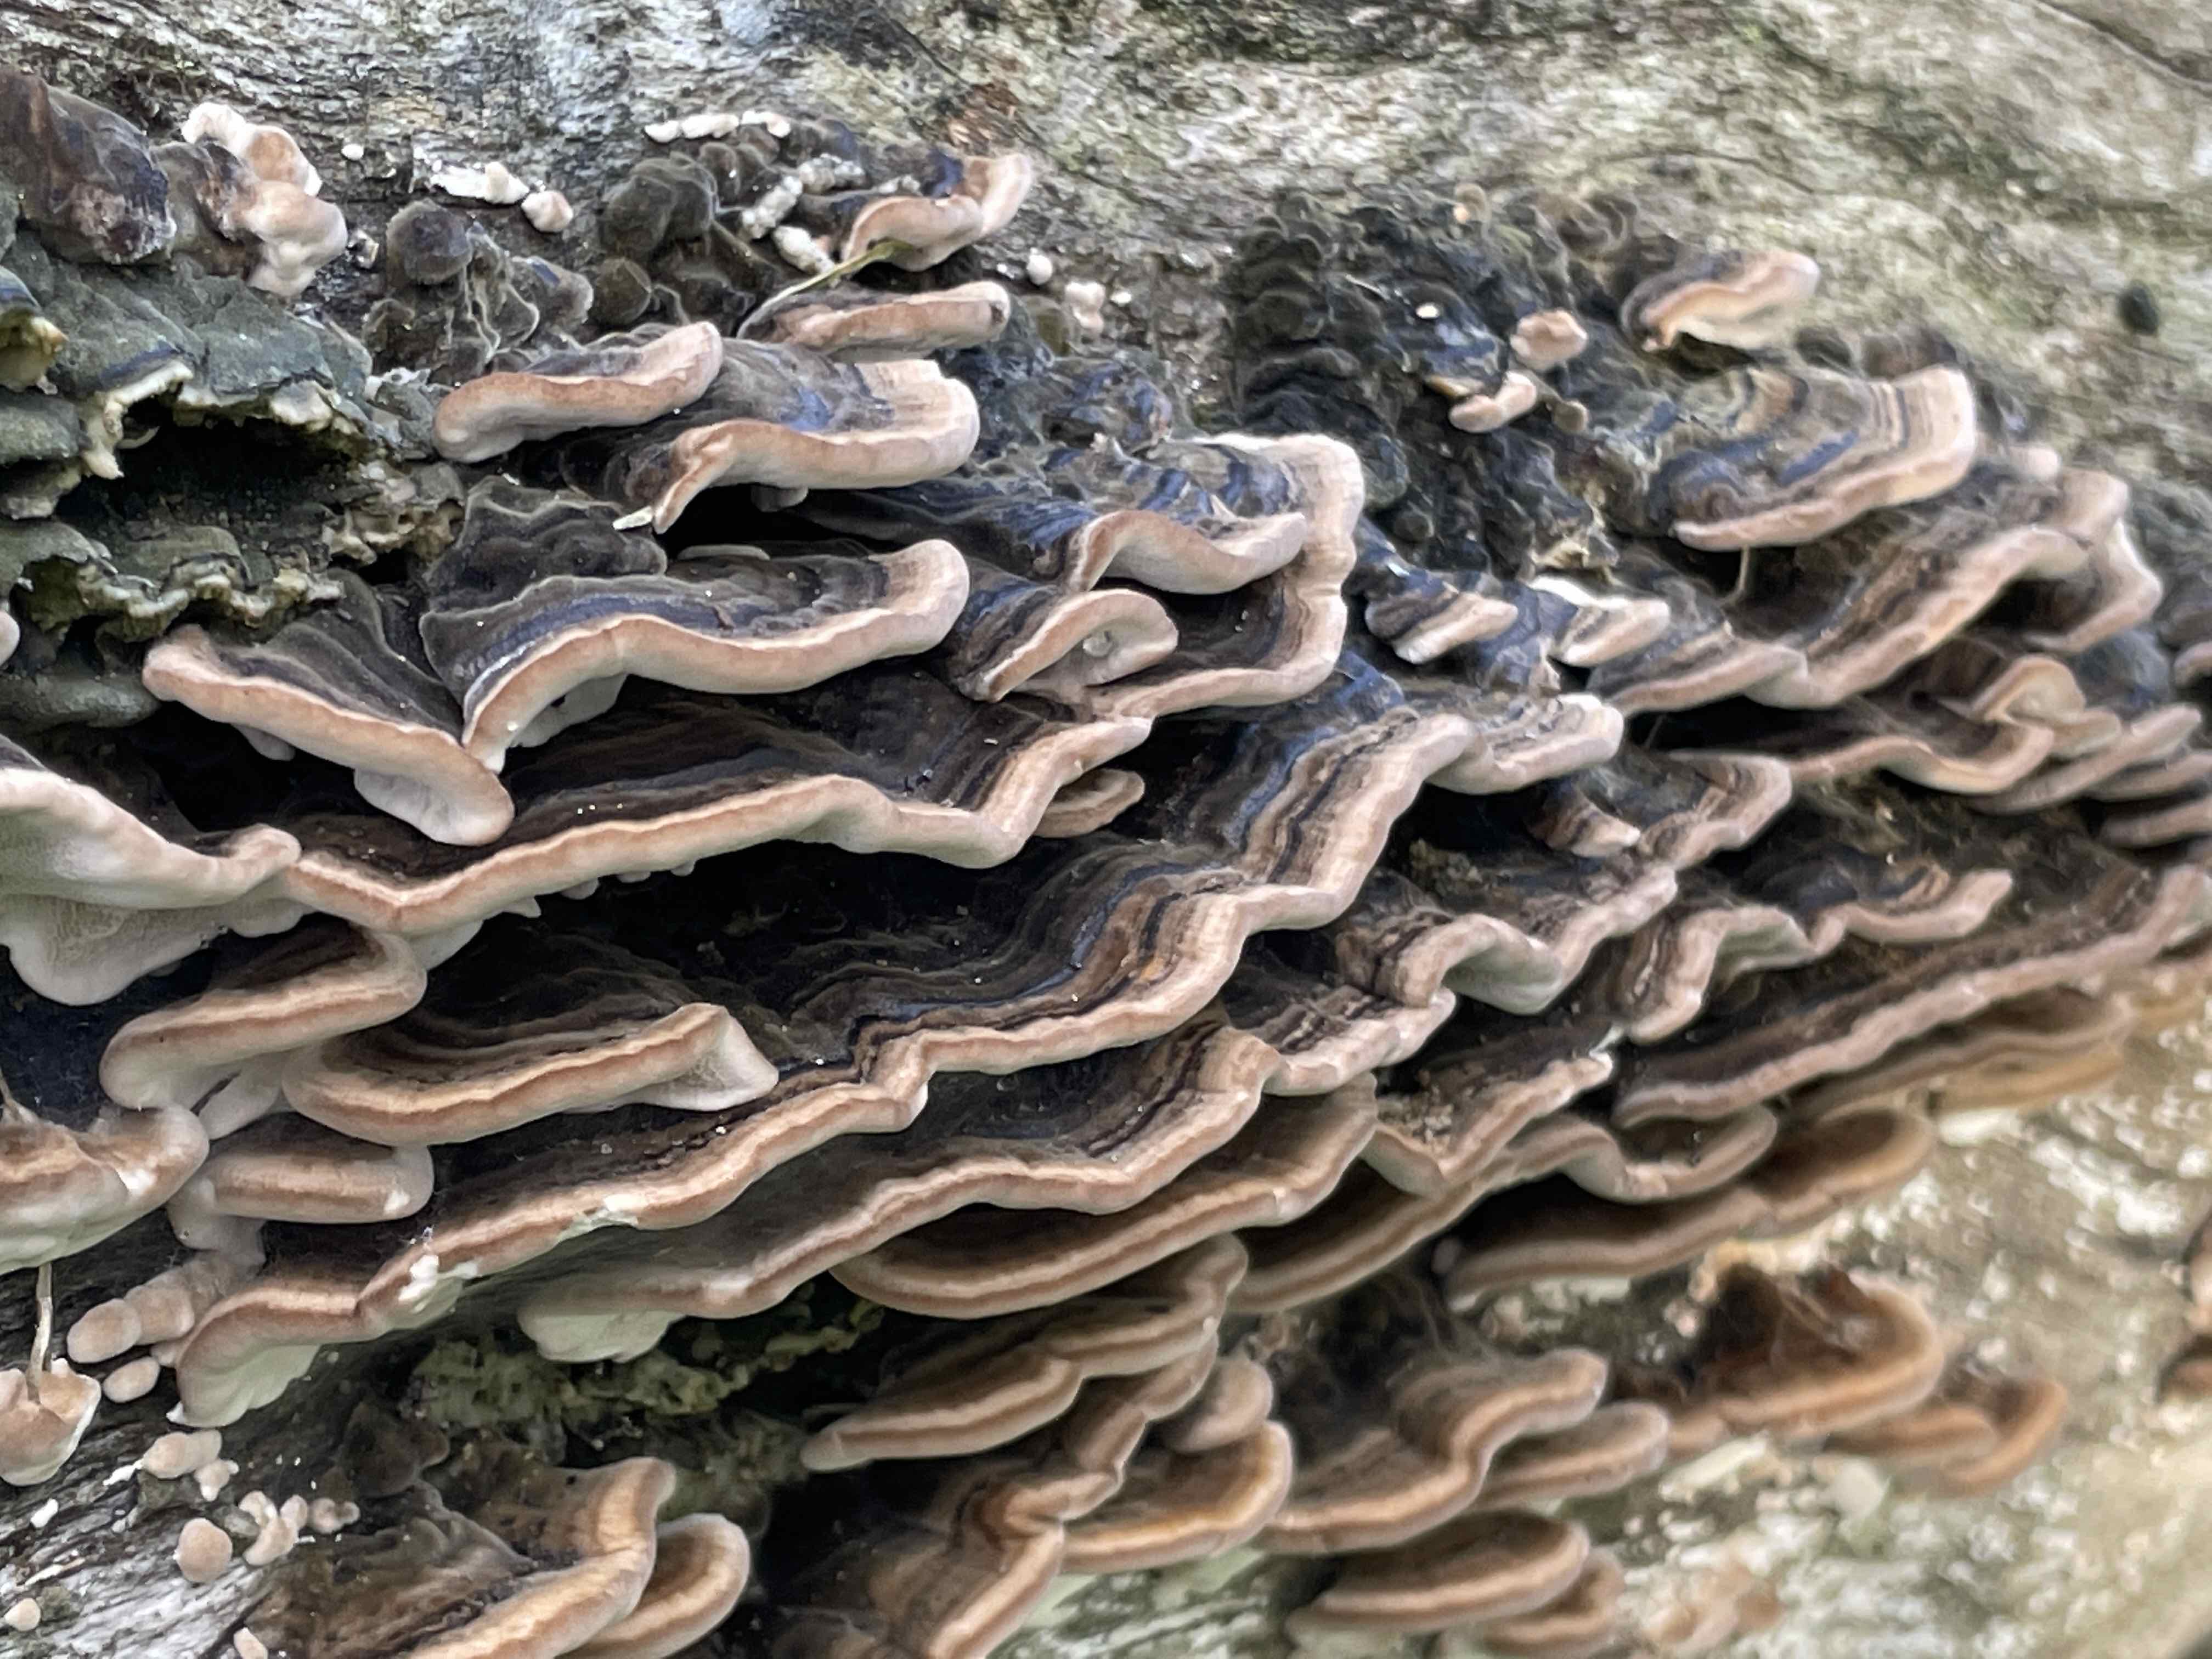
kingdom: Fungi
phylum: Basidiomycota
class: Agaricomycetes
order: Polyporales
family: Polyporaceae
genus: Trametes
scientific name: Trametes versicolor
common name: broget læderporesvamp
